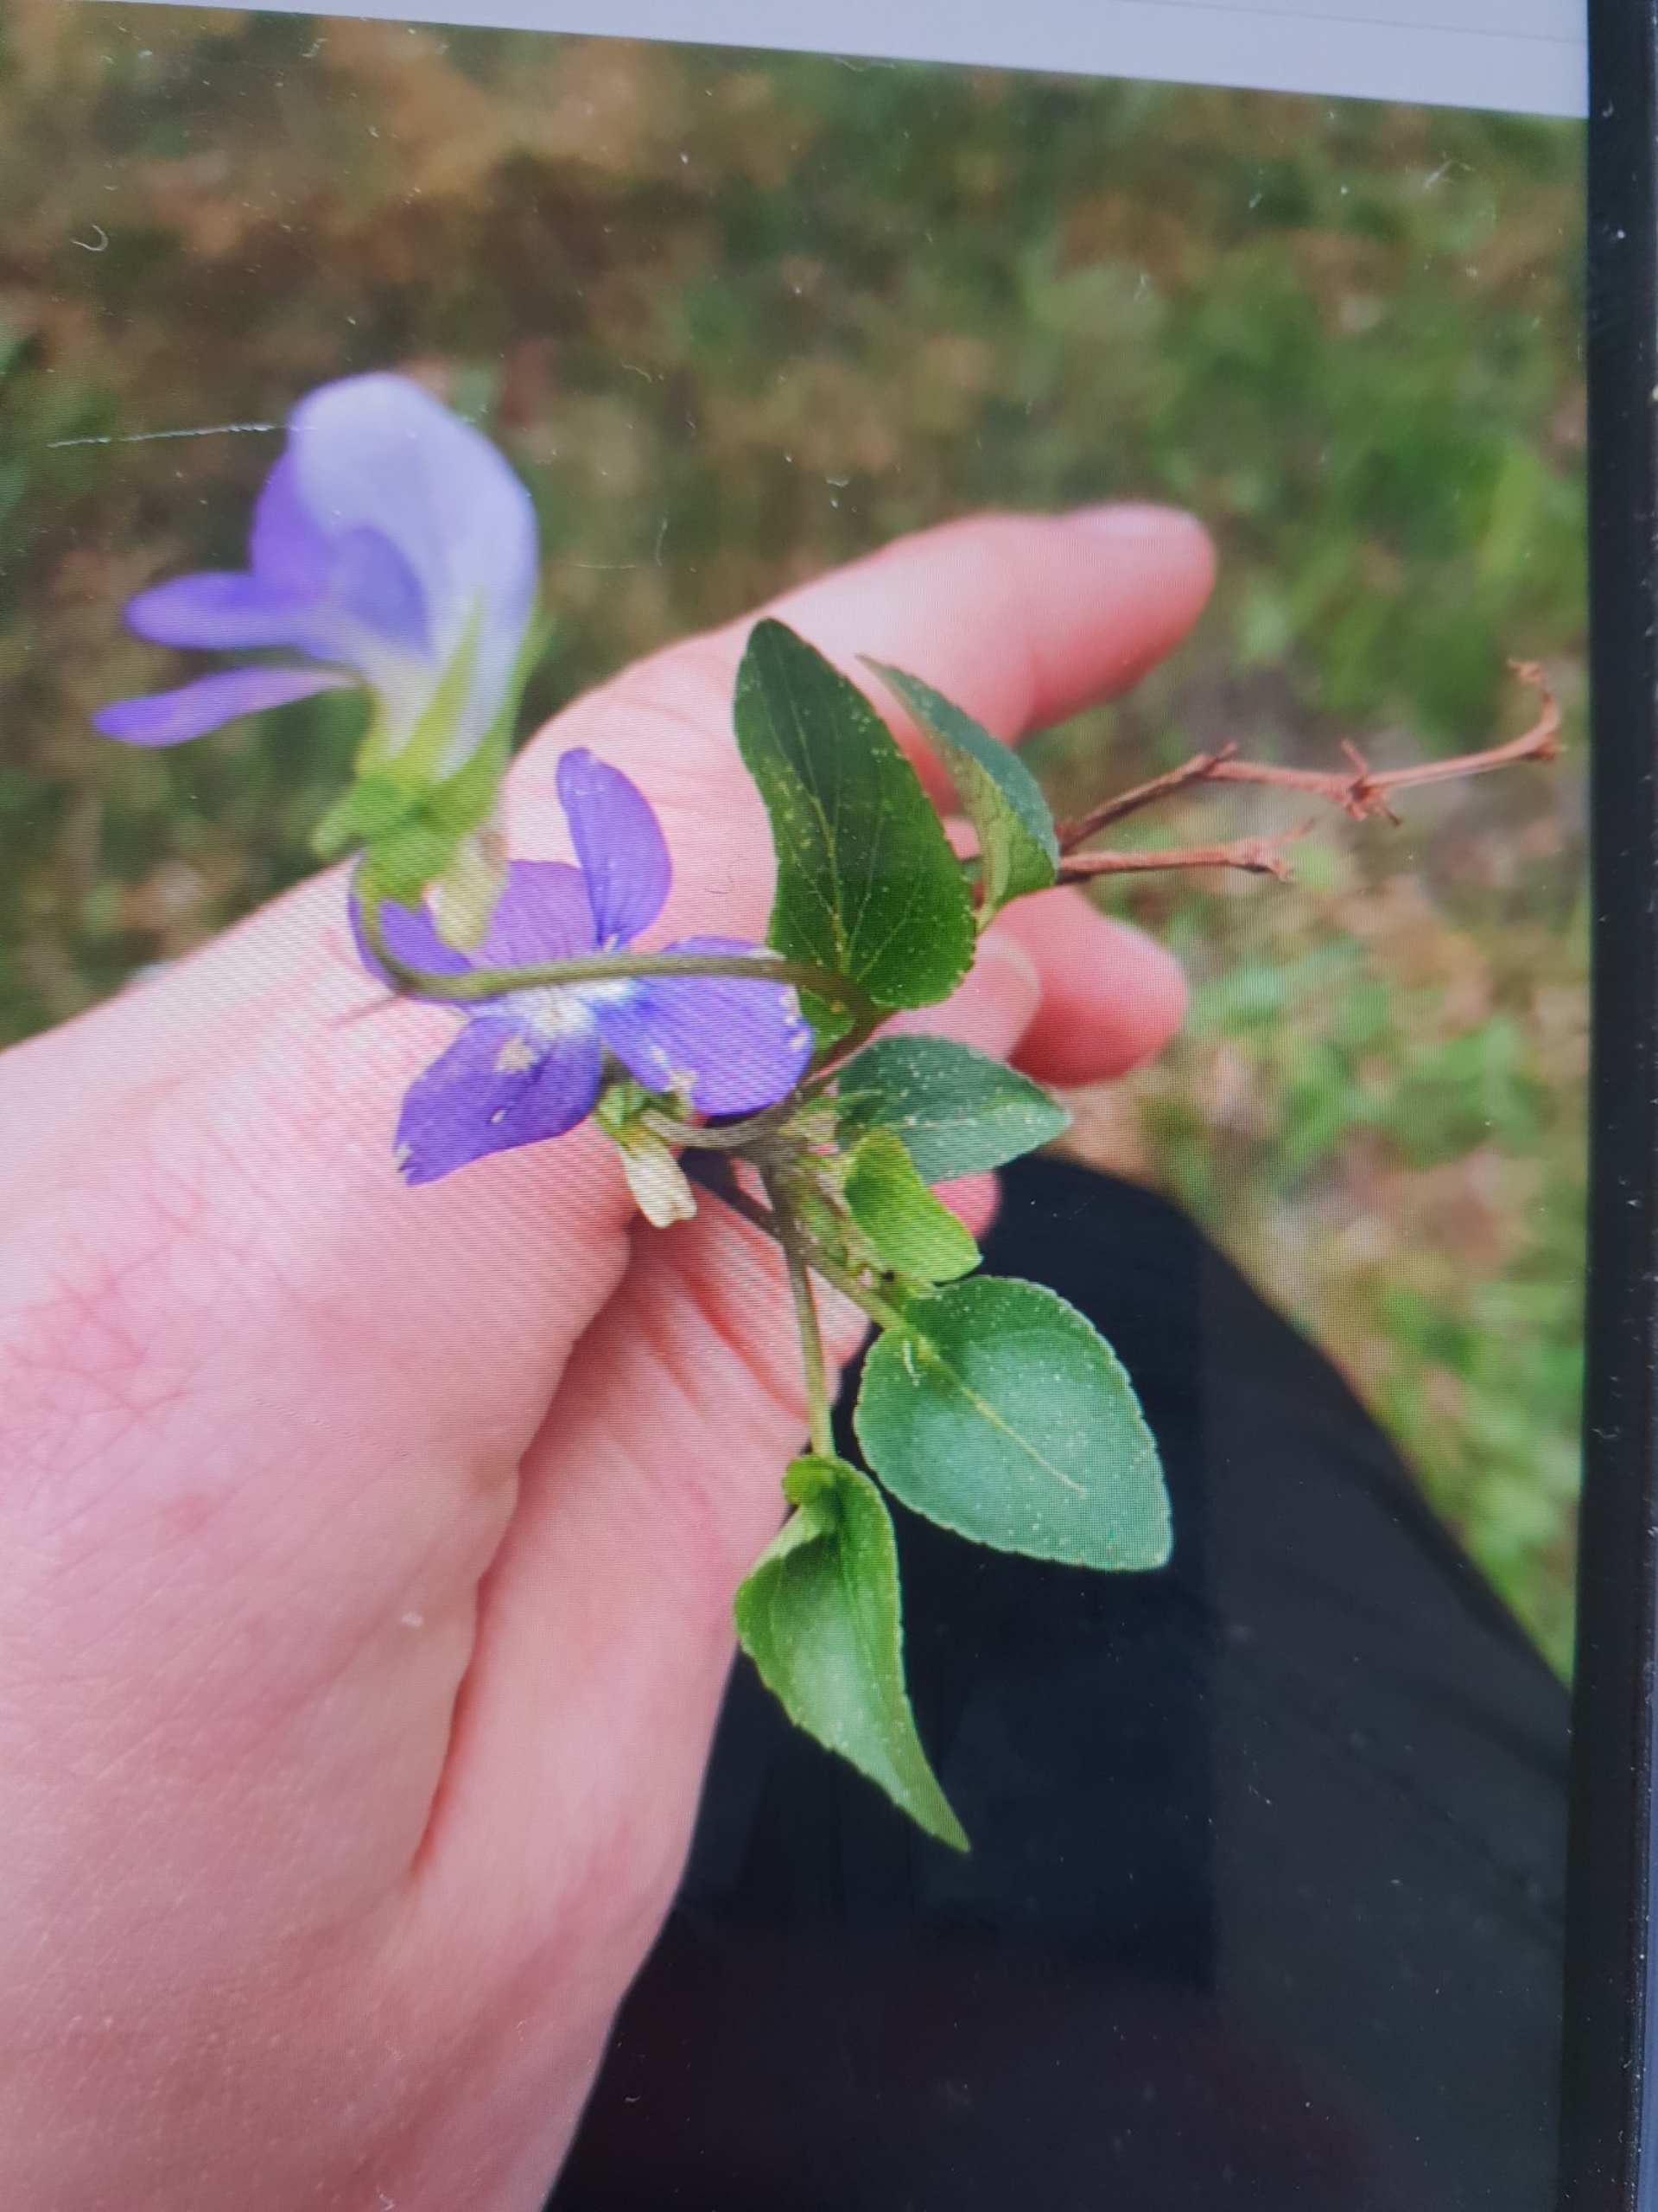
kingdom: Plantae
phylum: Tracheophyta
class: Magnoliopsida
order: Malpighiales
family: Violaceae
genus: Viola
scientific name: Viola canina
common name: Hunde-viol
